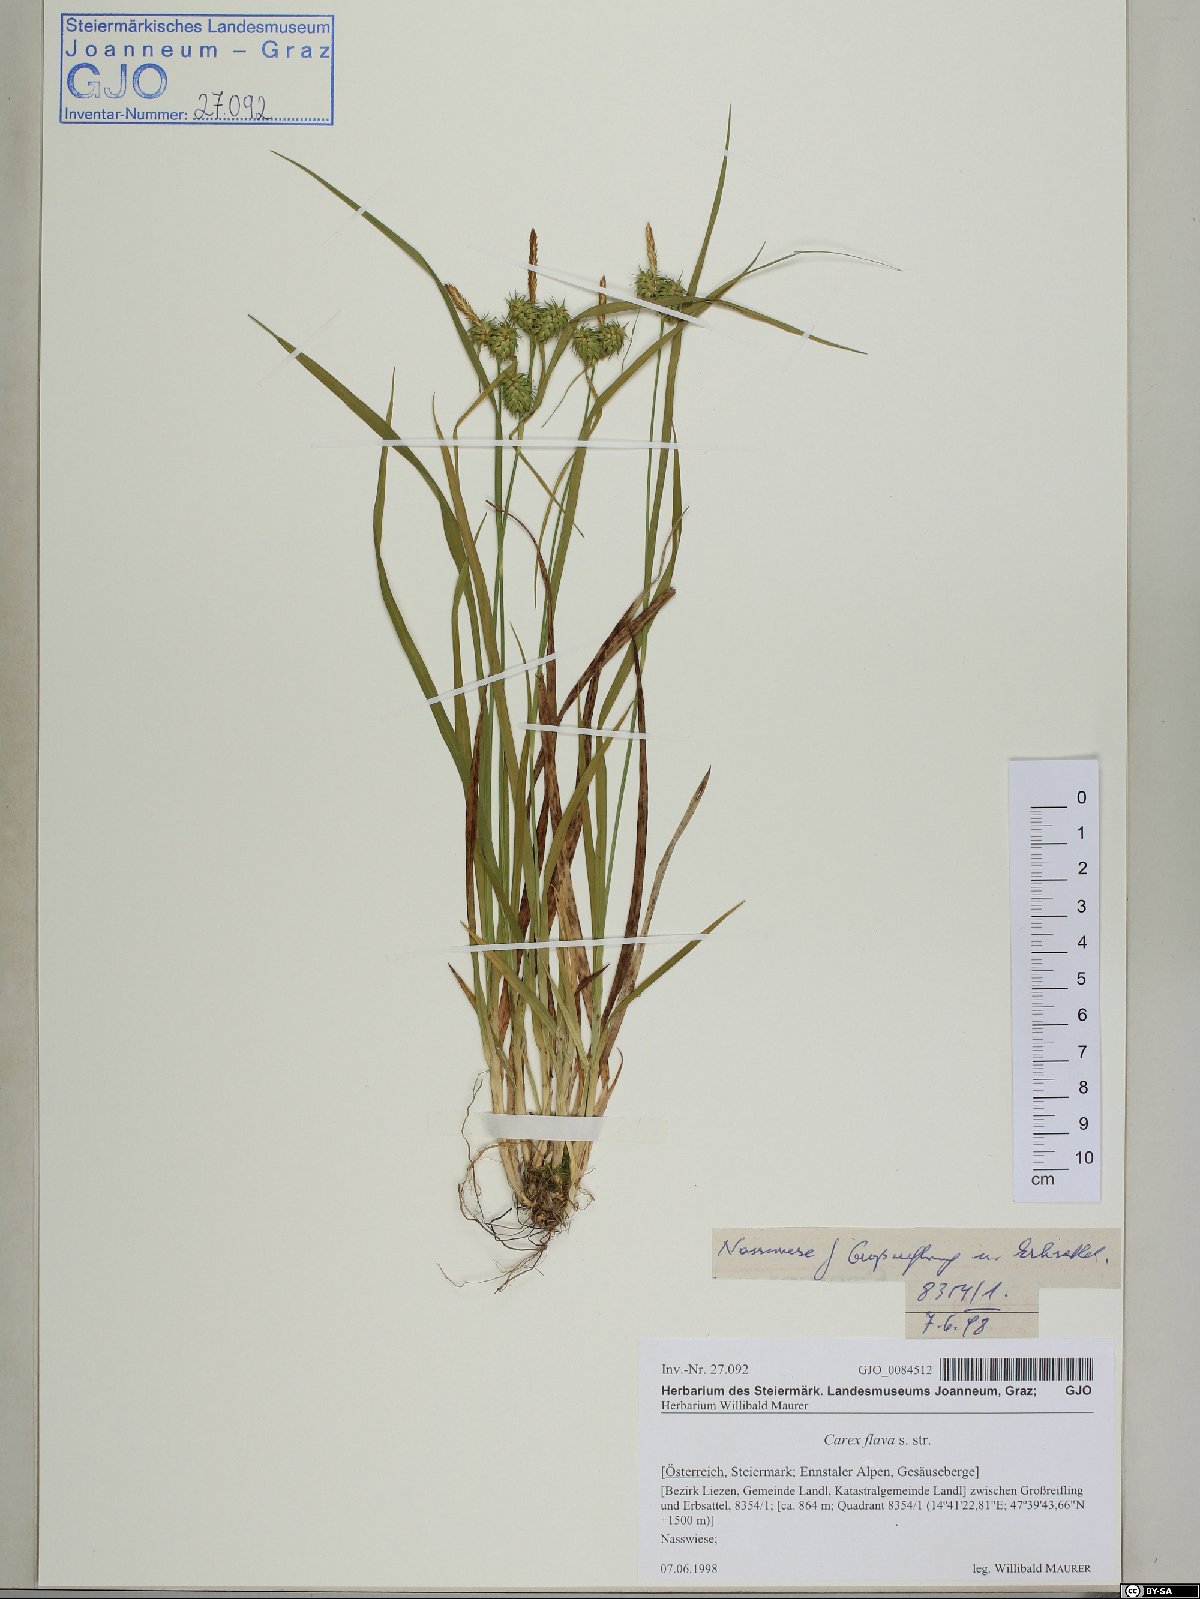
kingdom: Plantae
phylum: Tracheophyta
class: Liliopsida
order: Poales
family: Cyperaceae
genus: Carex
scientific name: Carex flava
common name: Large yellow-sedge
